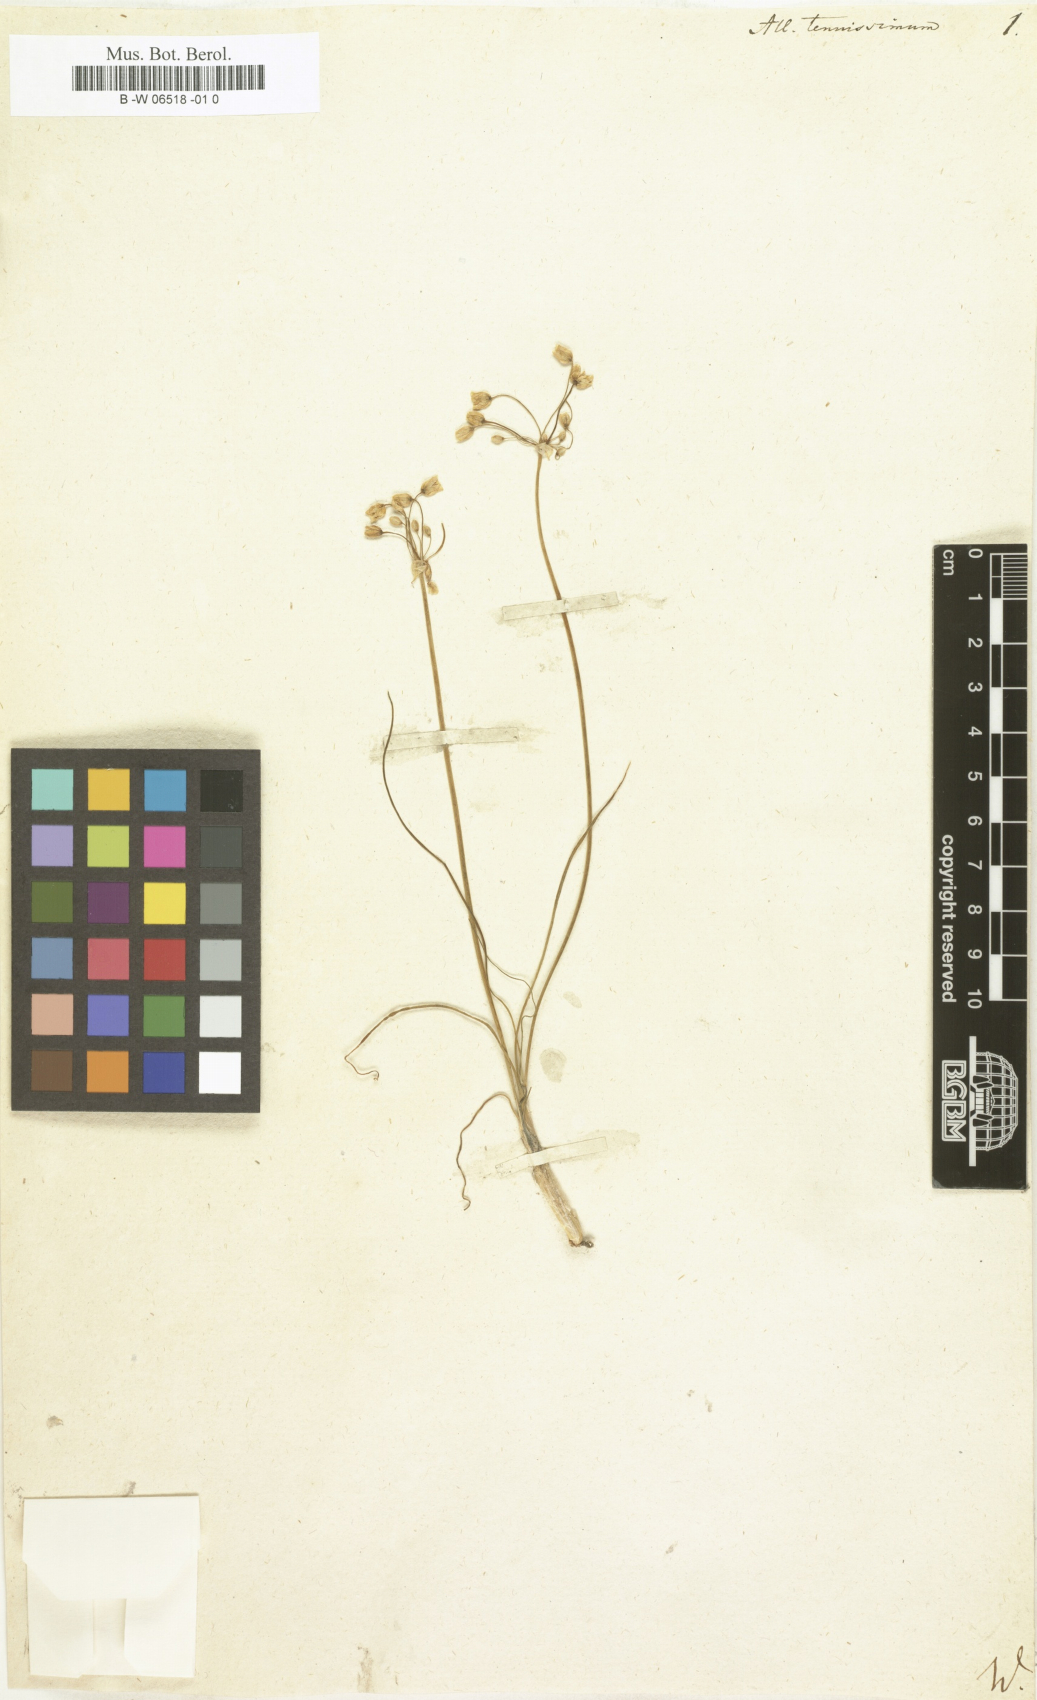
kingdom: Plantae
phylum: Tracheophyta
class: Liliopsida
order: Asparagales
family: Amaryllidaceae
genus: Allium
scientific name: Allium tenuissimum
